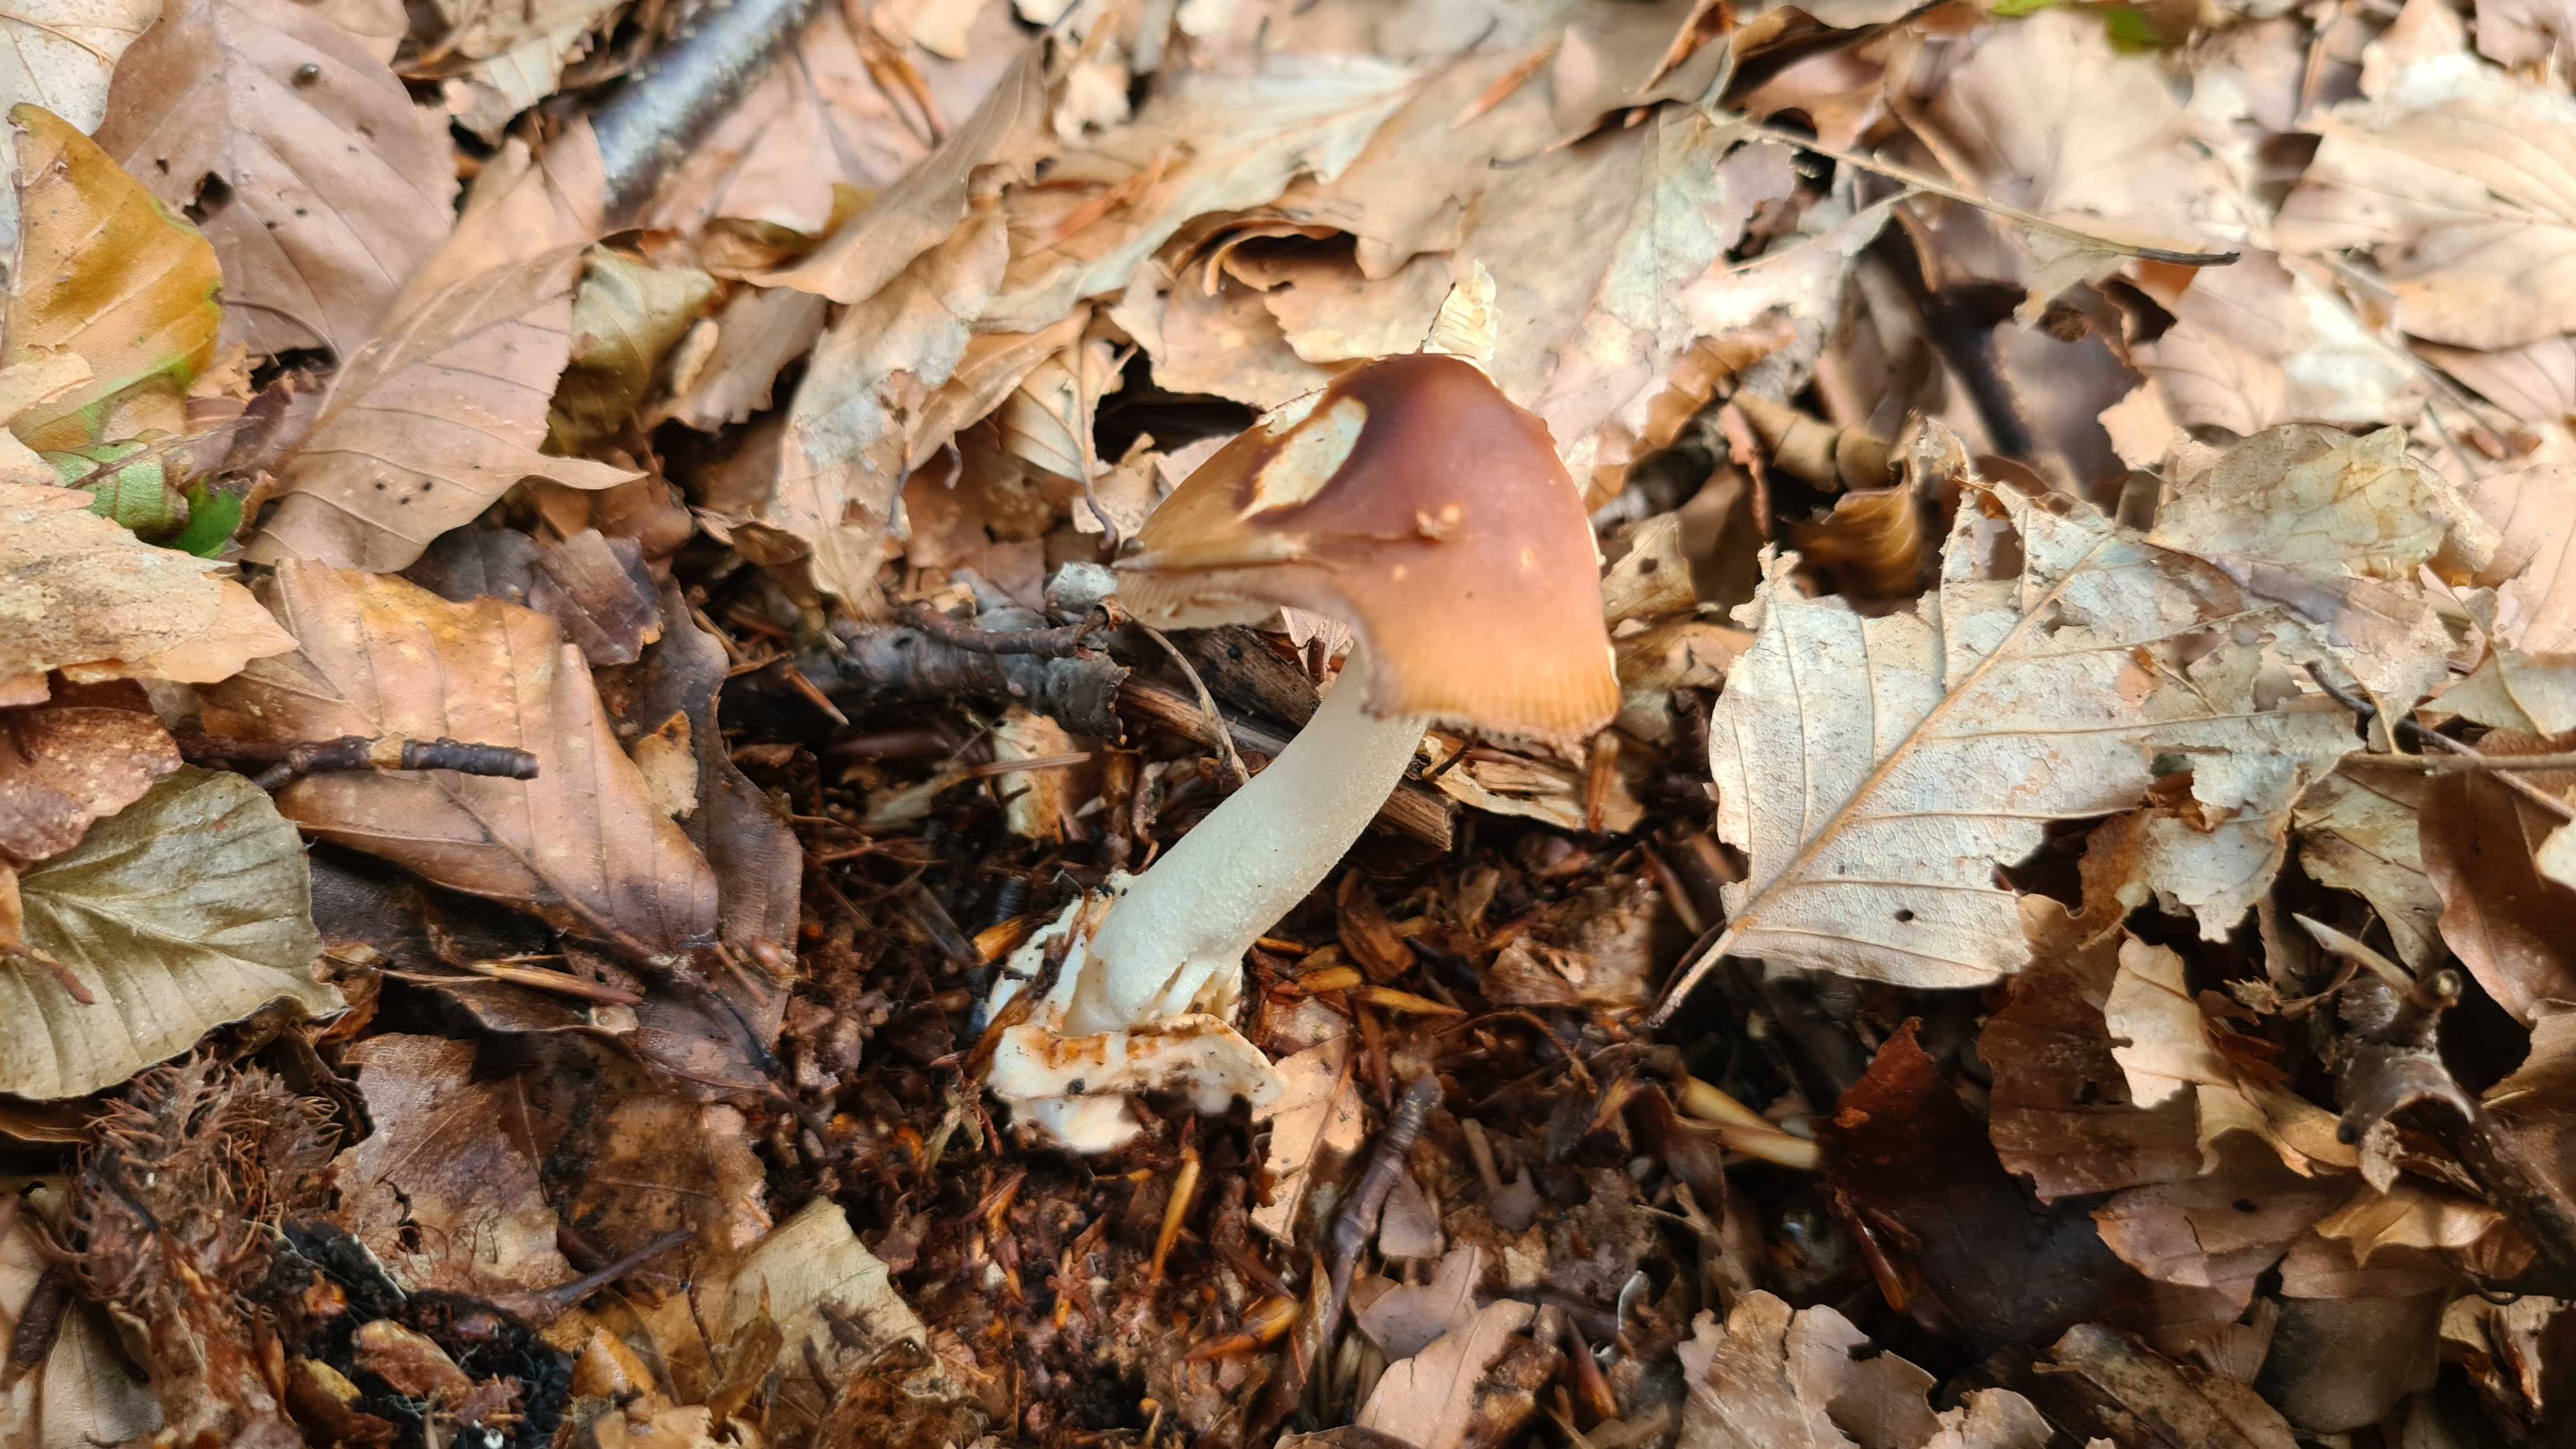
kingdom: Fungi
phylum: Basidiomycota
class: Agaricomycetes
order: Agaricales
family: Amanitaceae
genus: Amanita
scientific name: Amanita fulva
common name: brun kam-fluesvamp
